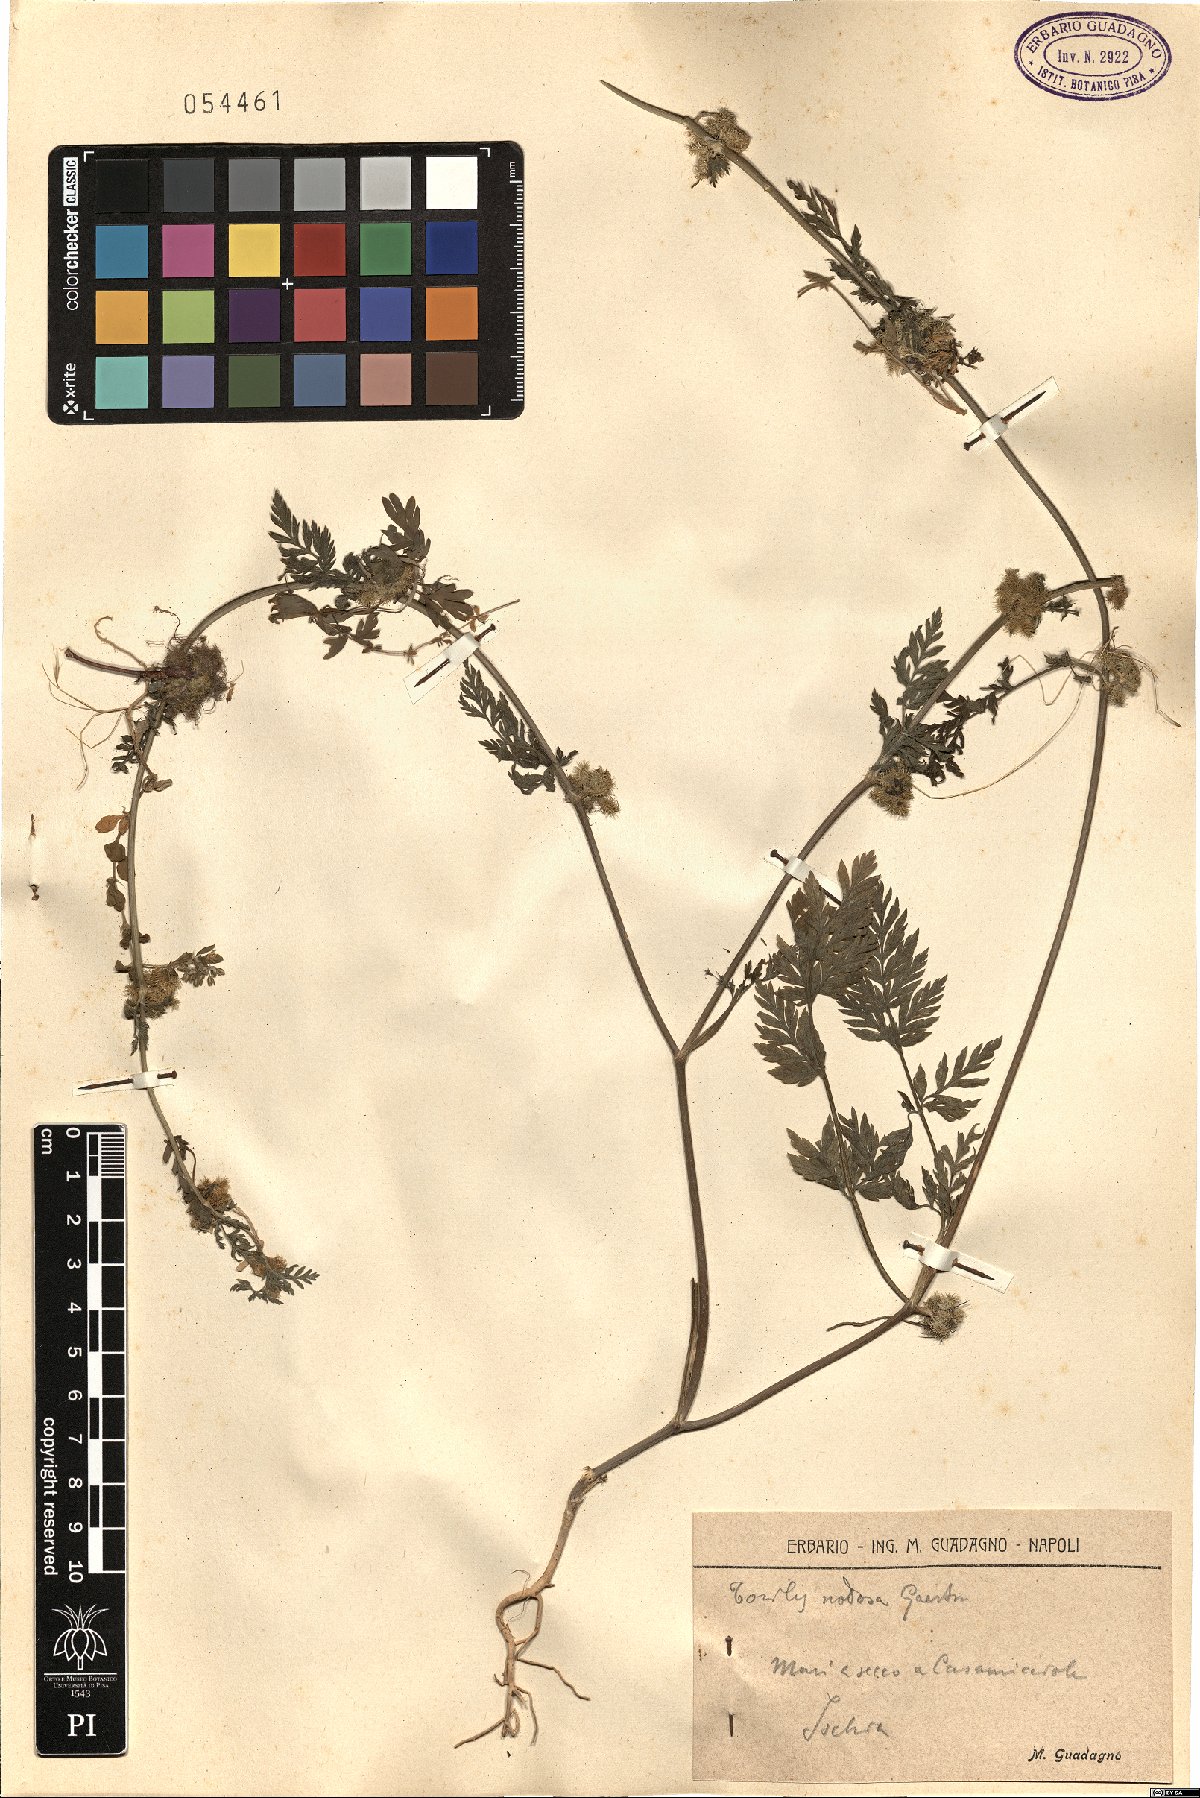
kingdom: Plantae
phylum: Tracheophyta
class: Magnoliopsida
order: Apiales
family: Apiaceae
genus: Torilis
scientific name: Torilis nodosa
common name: Knotted hedge-parsley
